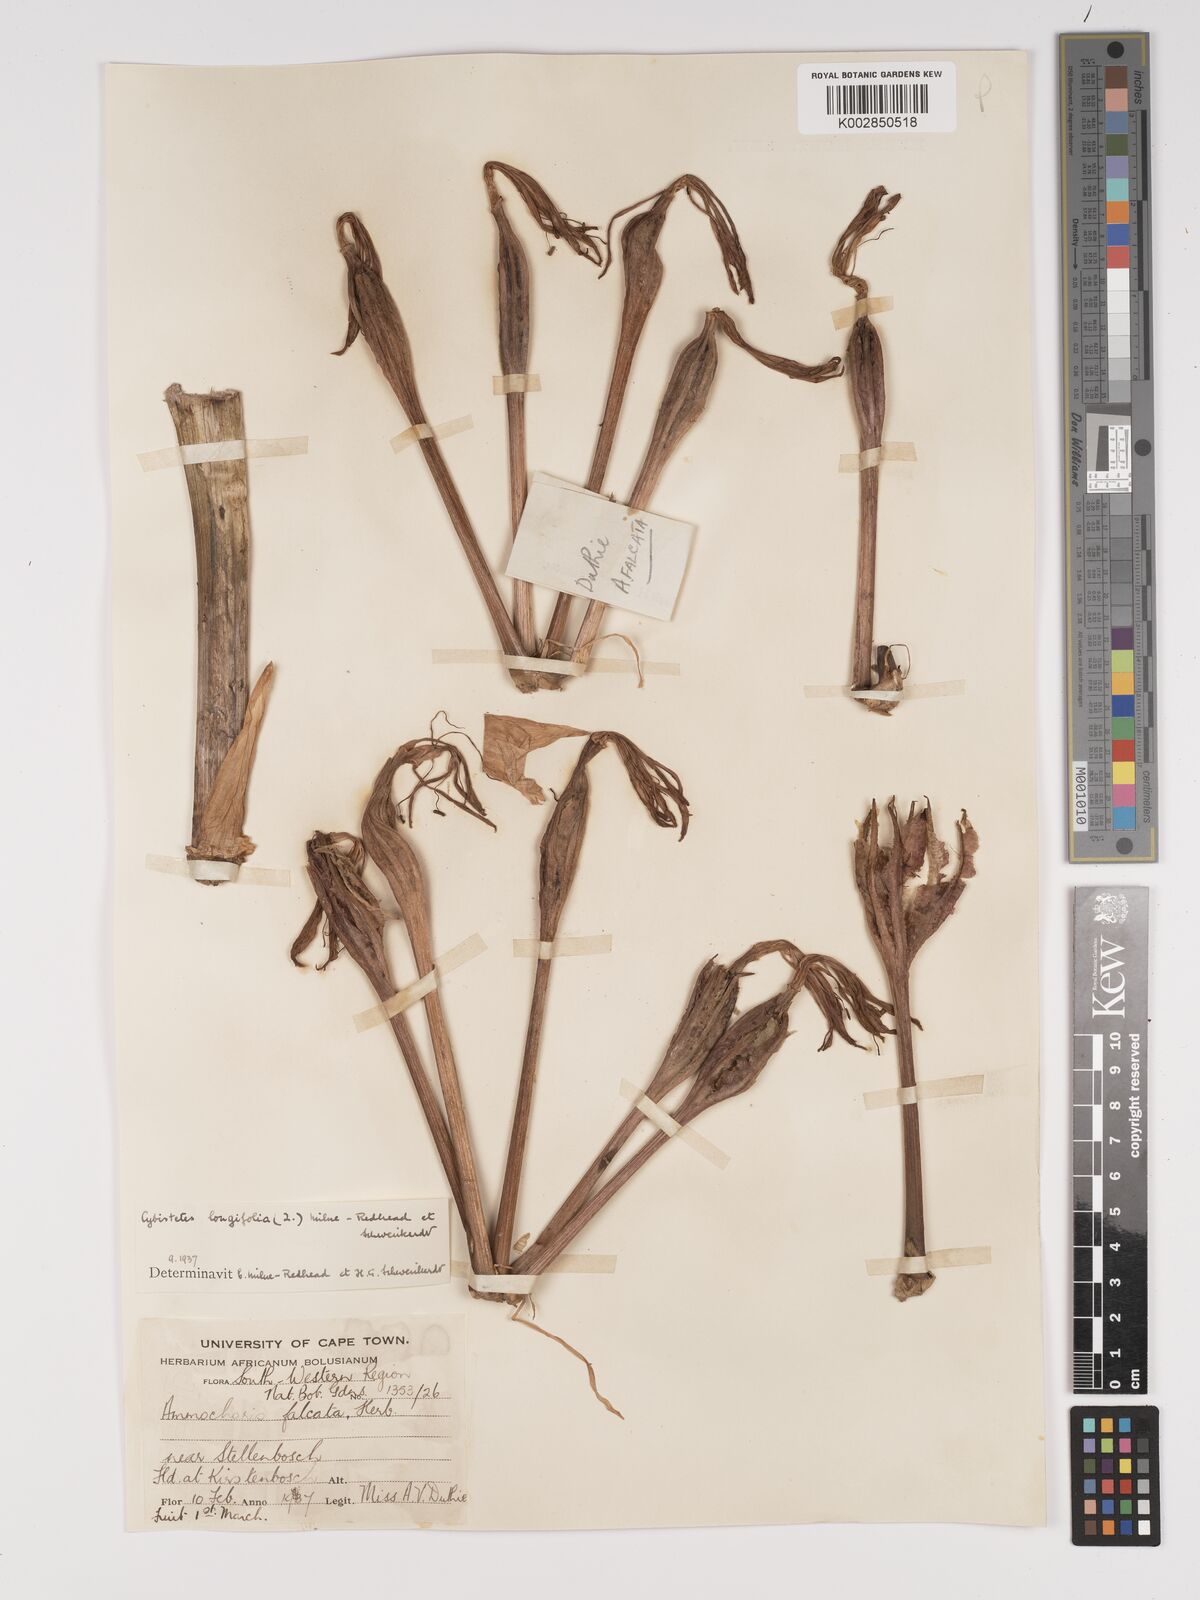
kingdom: Plantae
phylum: Tracheophyta
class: Liliopsida
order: Asparagales
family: Amaryllidaceae
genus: Ammocharis
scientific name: Ammocharis longifolia
